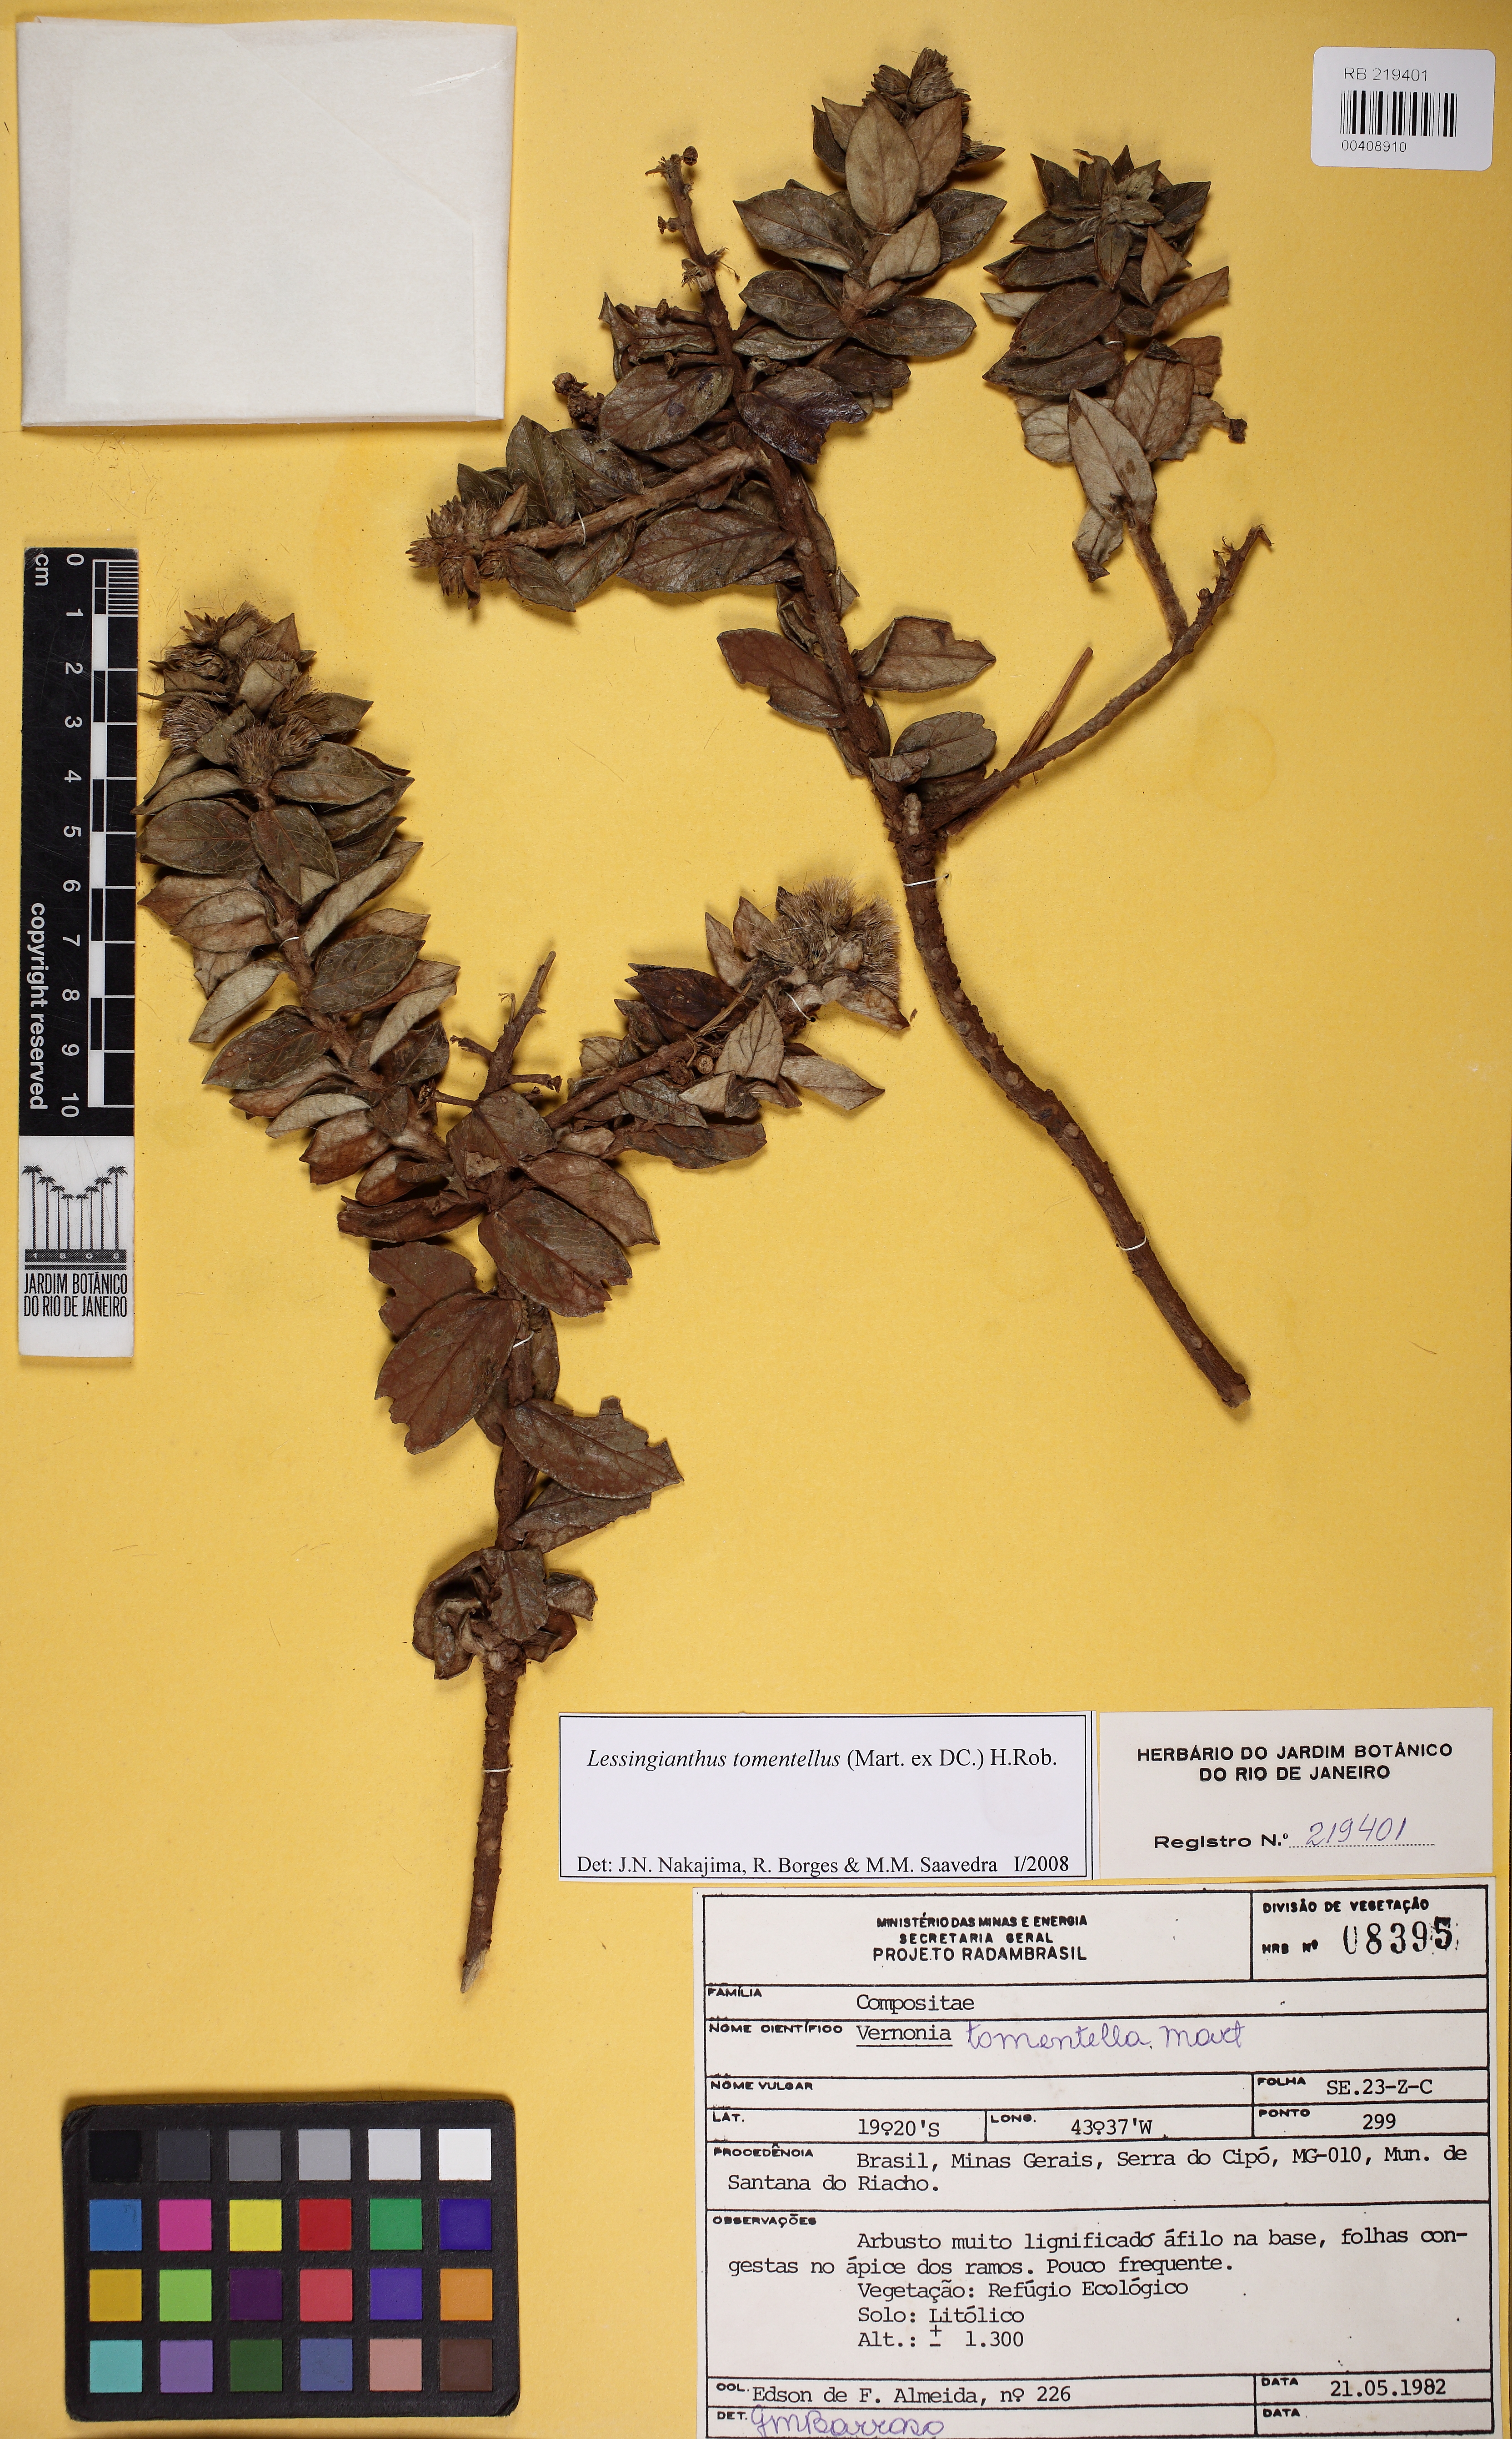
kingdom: Plantae
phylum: Tracheophyta
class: Magnoliopsida
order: Asterales
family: Asteraceae
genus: Lessingianthus
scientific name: Lessingianthus tomentellus
